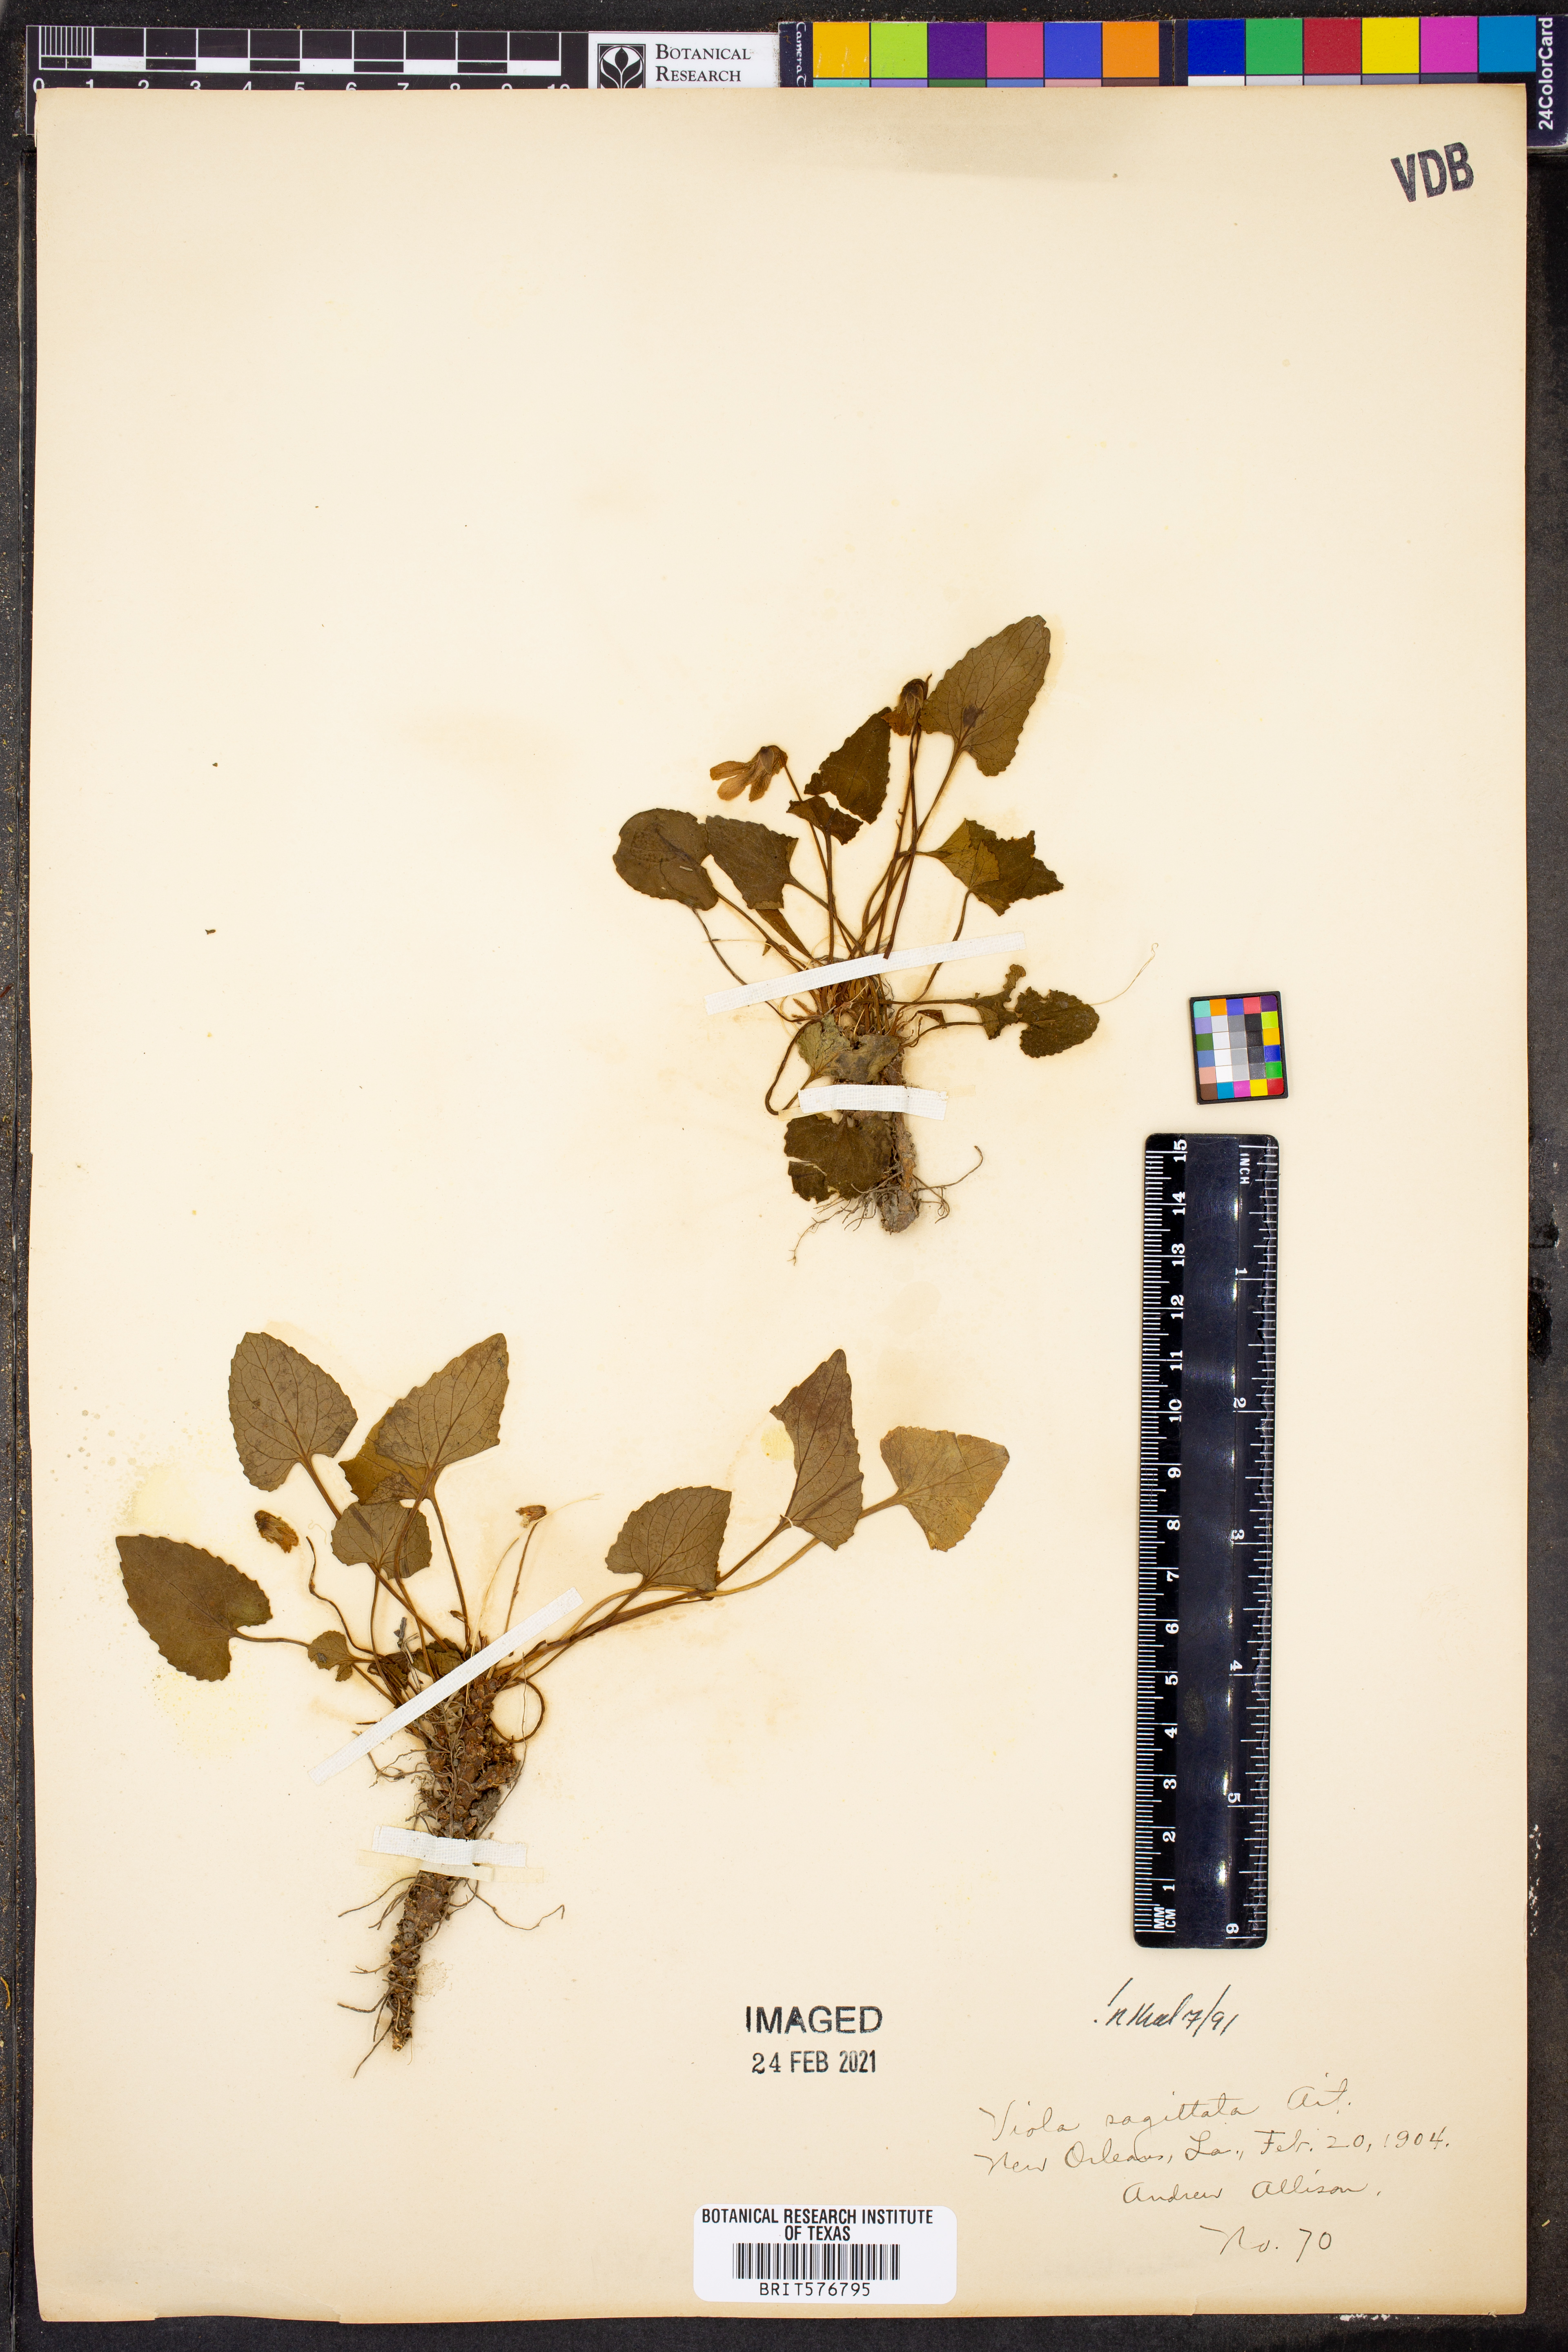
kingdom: Plantae
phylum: Tracheophyta
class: Magnoliopsida
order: Malpighiales
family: Violaceae
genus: Viola
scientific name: Viola sagittata
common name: Arrowhead violet
